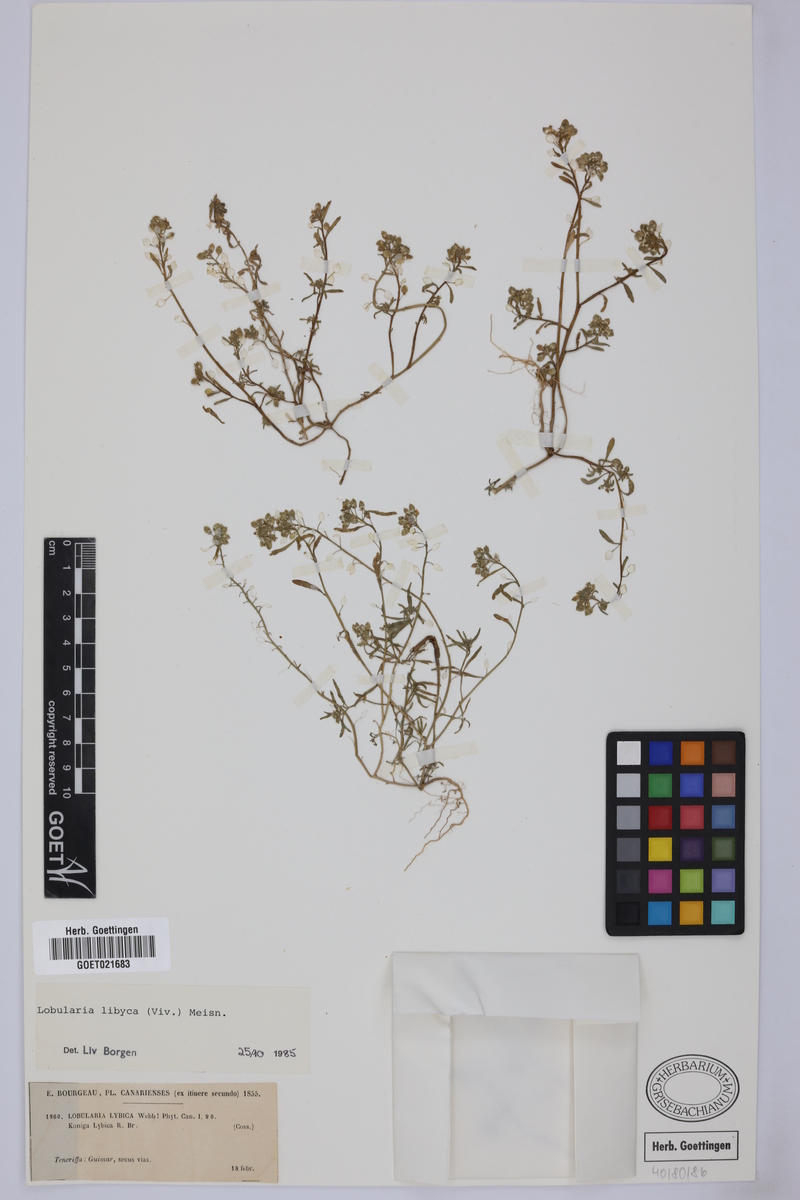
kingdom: Plantae
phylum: Tracheophyta
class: Magnoliopsida
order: Brassicales
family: Brassicaceae
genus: Lobularia
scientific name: Lobularia libyca
